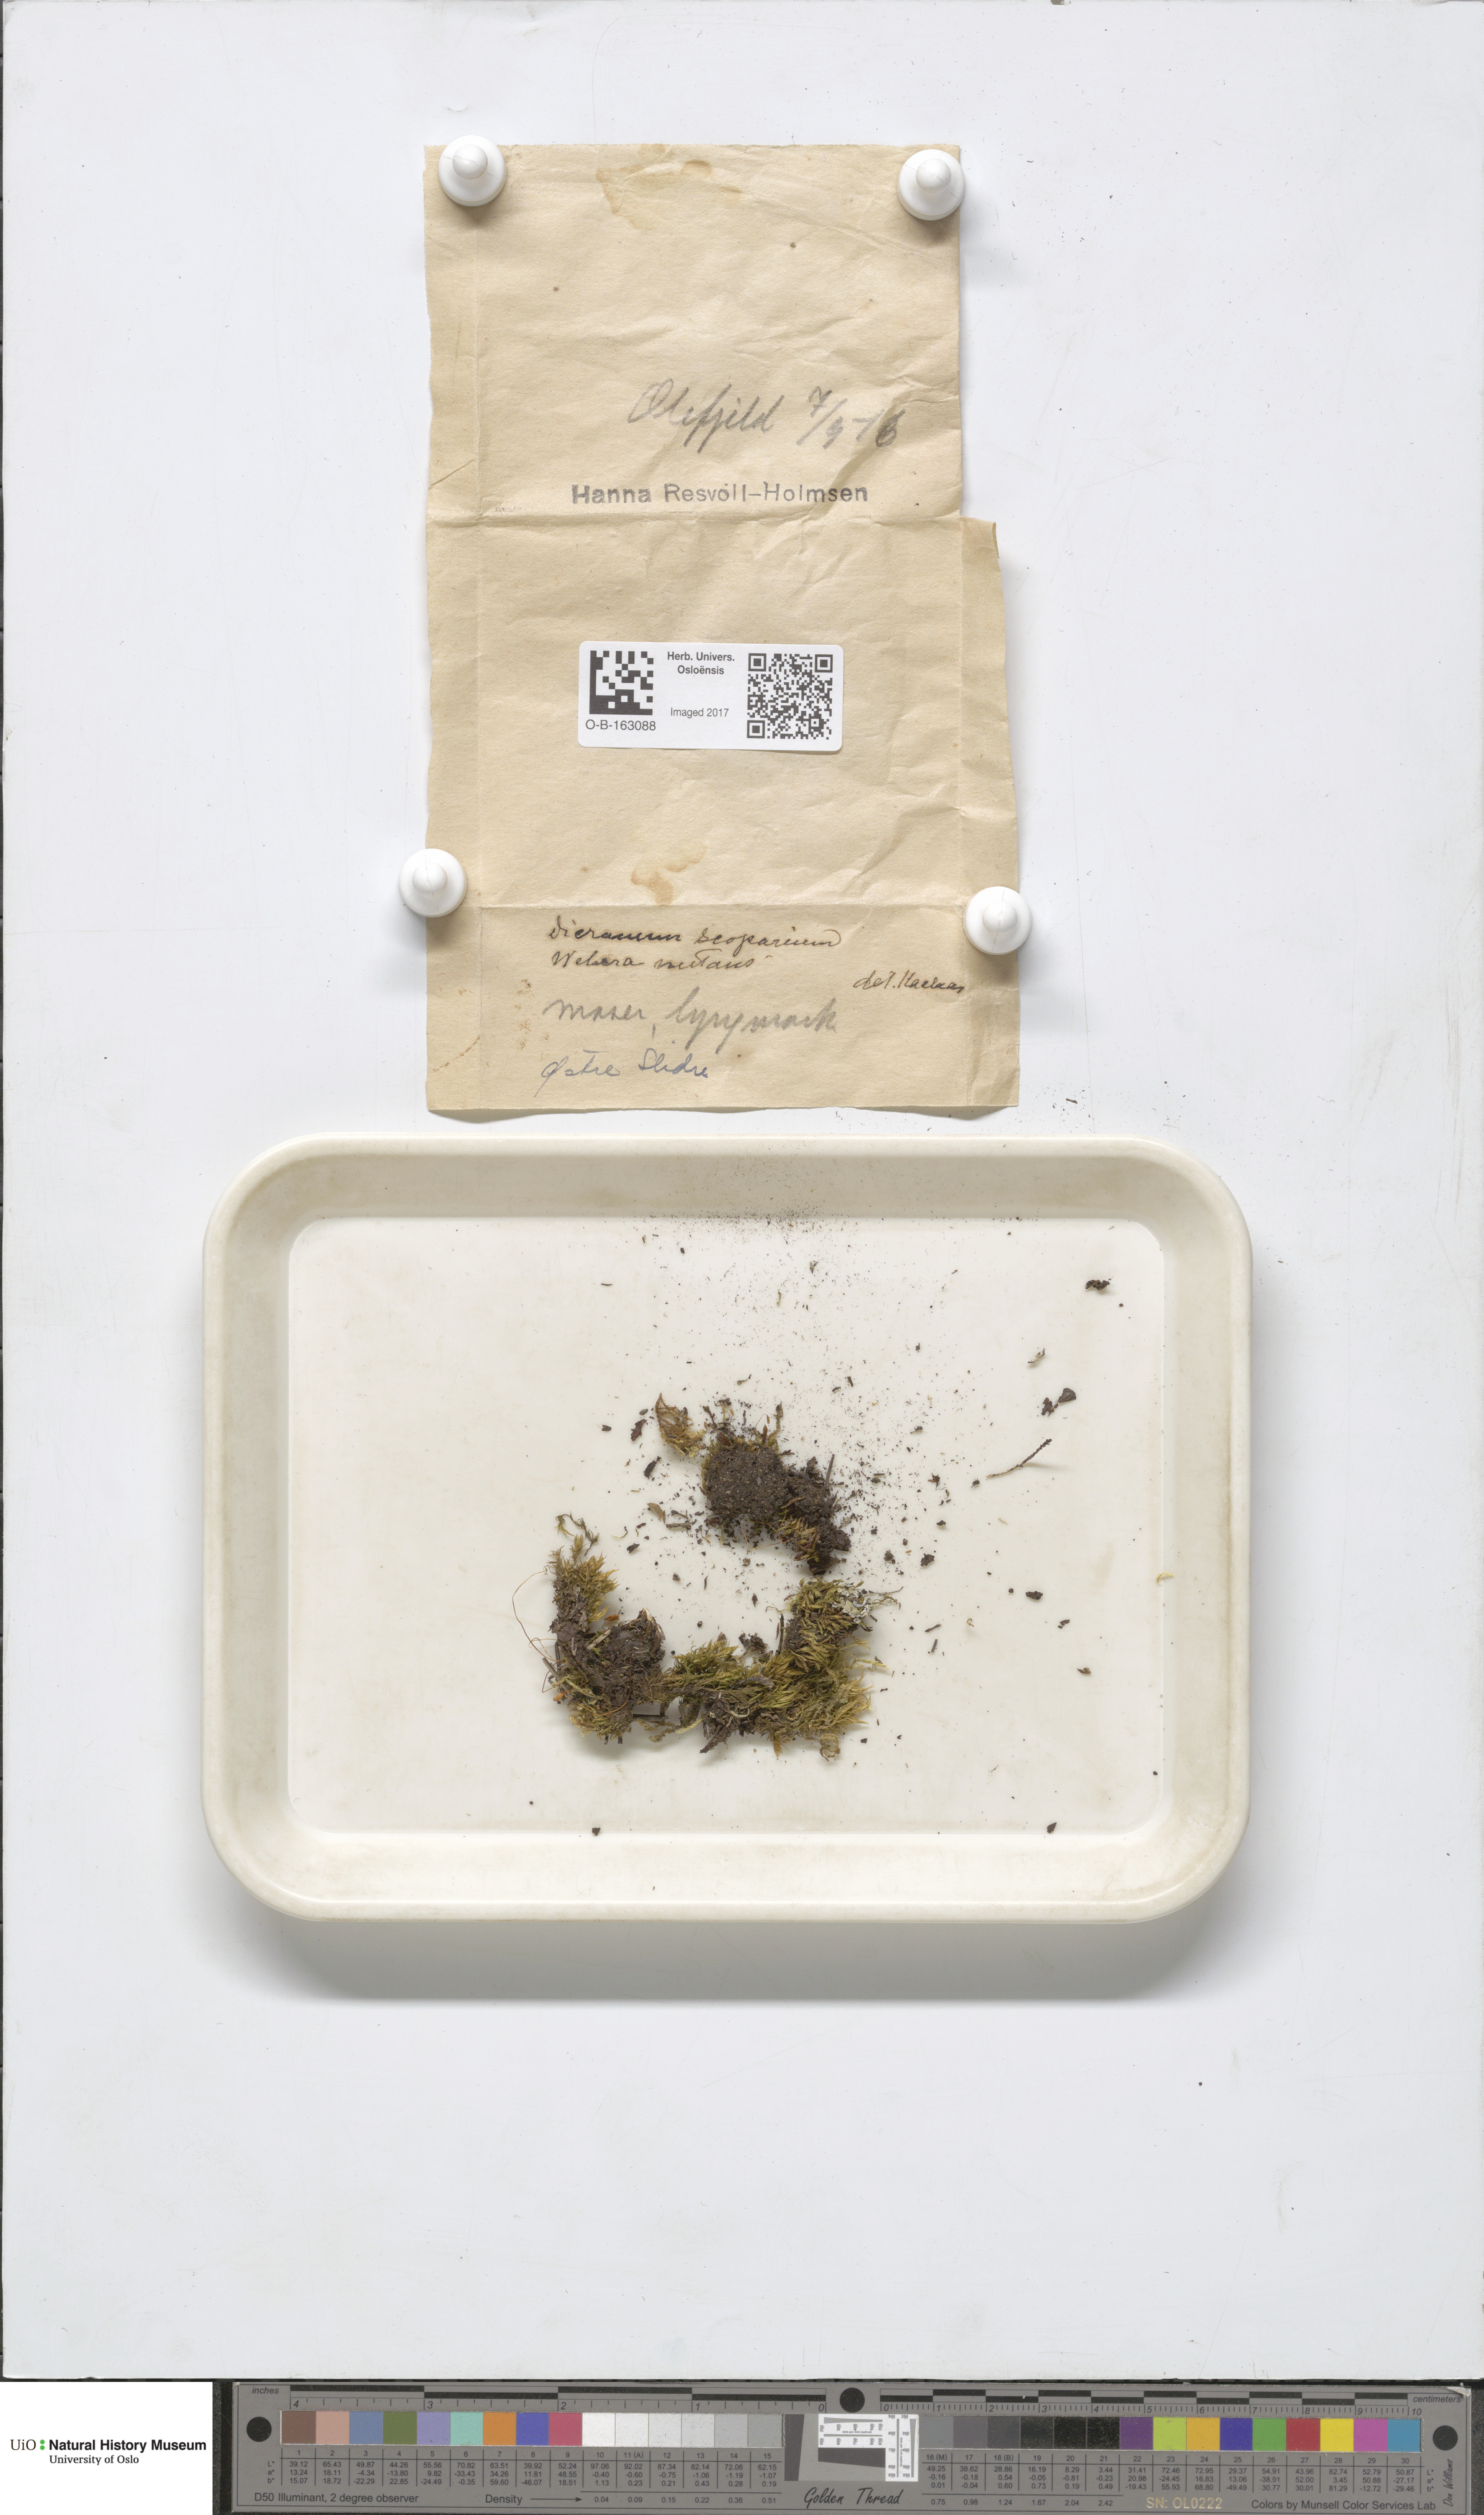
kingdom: Plantae
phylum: Bryophyta
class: Bryopsida
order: Dicranales
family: Dicranaceae
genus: Dicranum
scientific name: Dicranum scoparium
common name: Broom fork-moss
